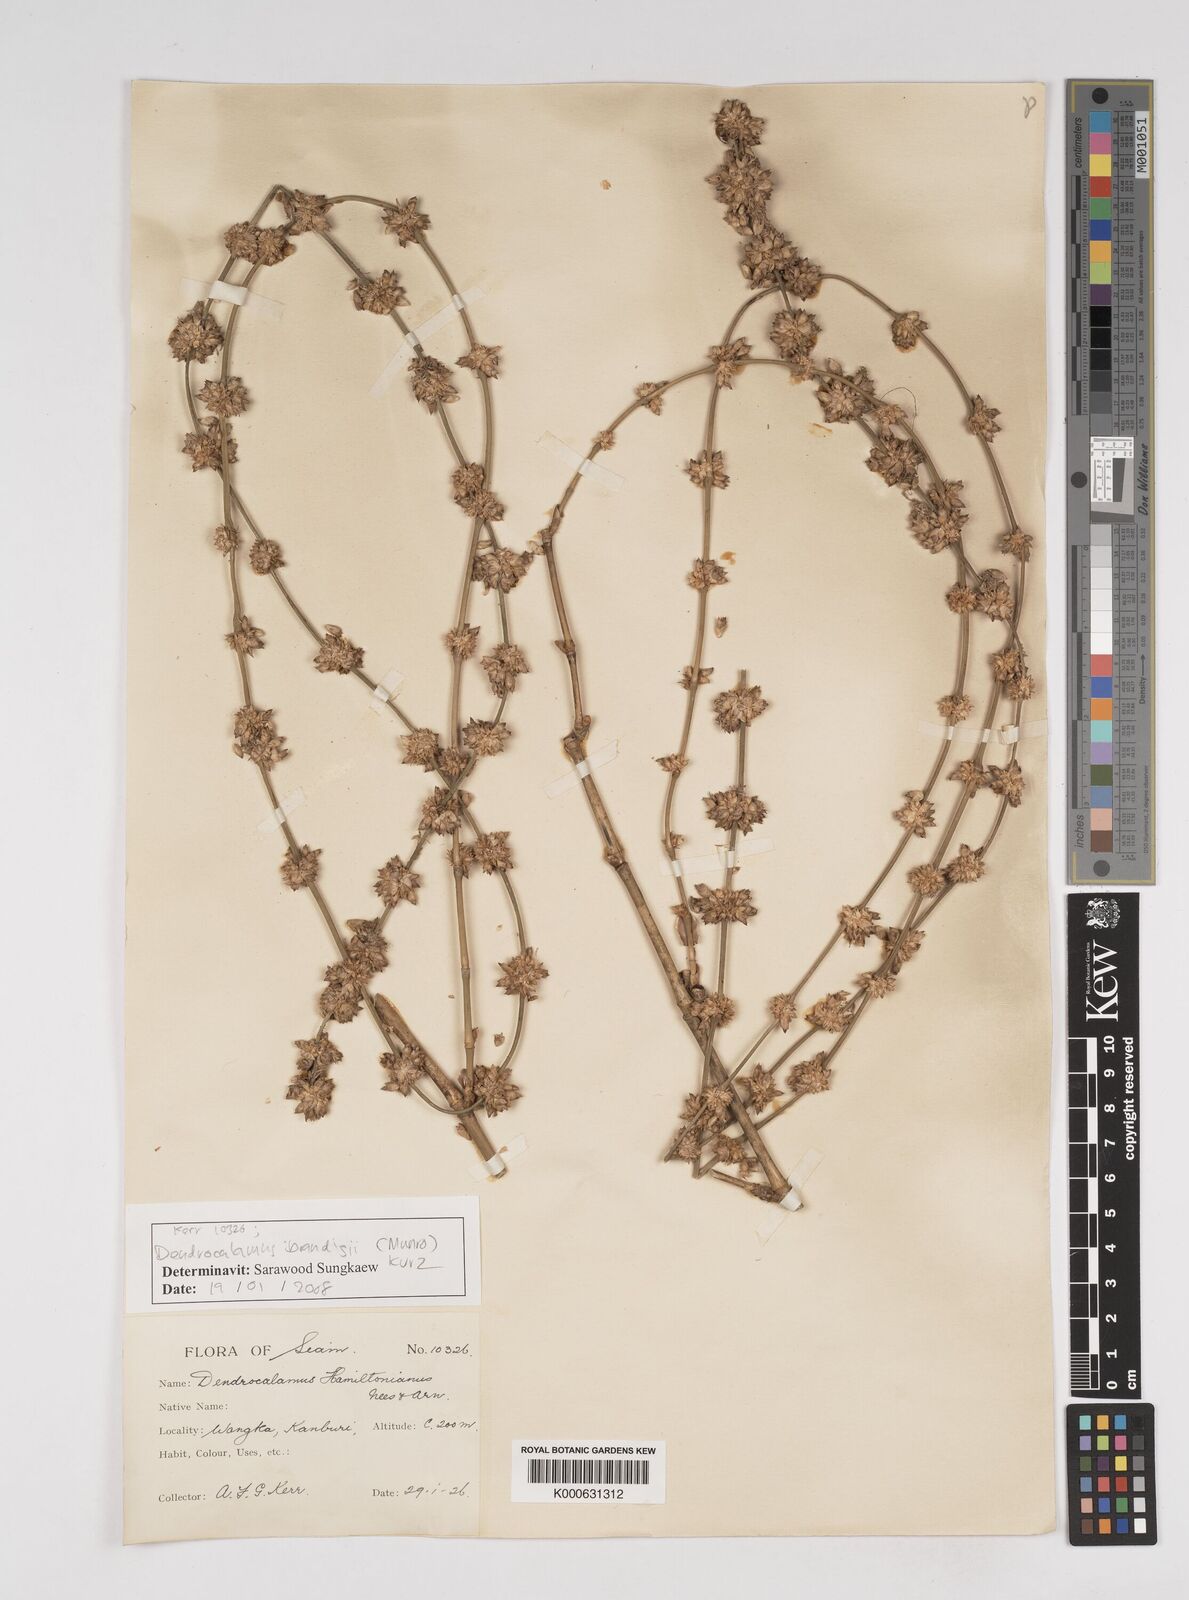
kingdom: Plantae
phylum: Tracheophyta
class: Liliopsida
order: Poales
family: Poaceae
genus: Dendrocalamus
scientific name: Dendrocalamus brandisii
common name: Velvetleaf bamboo
